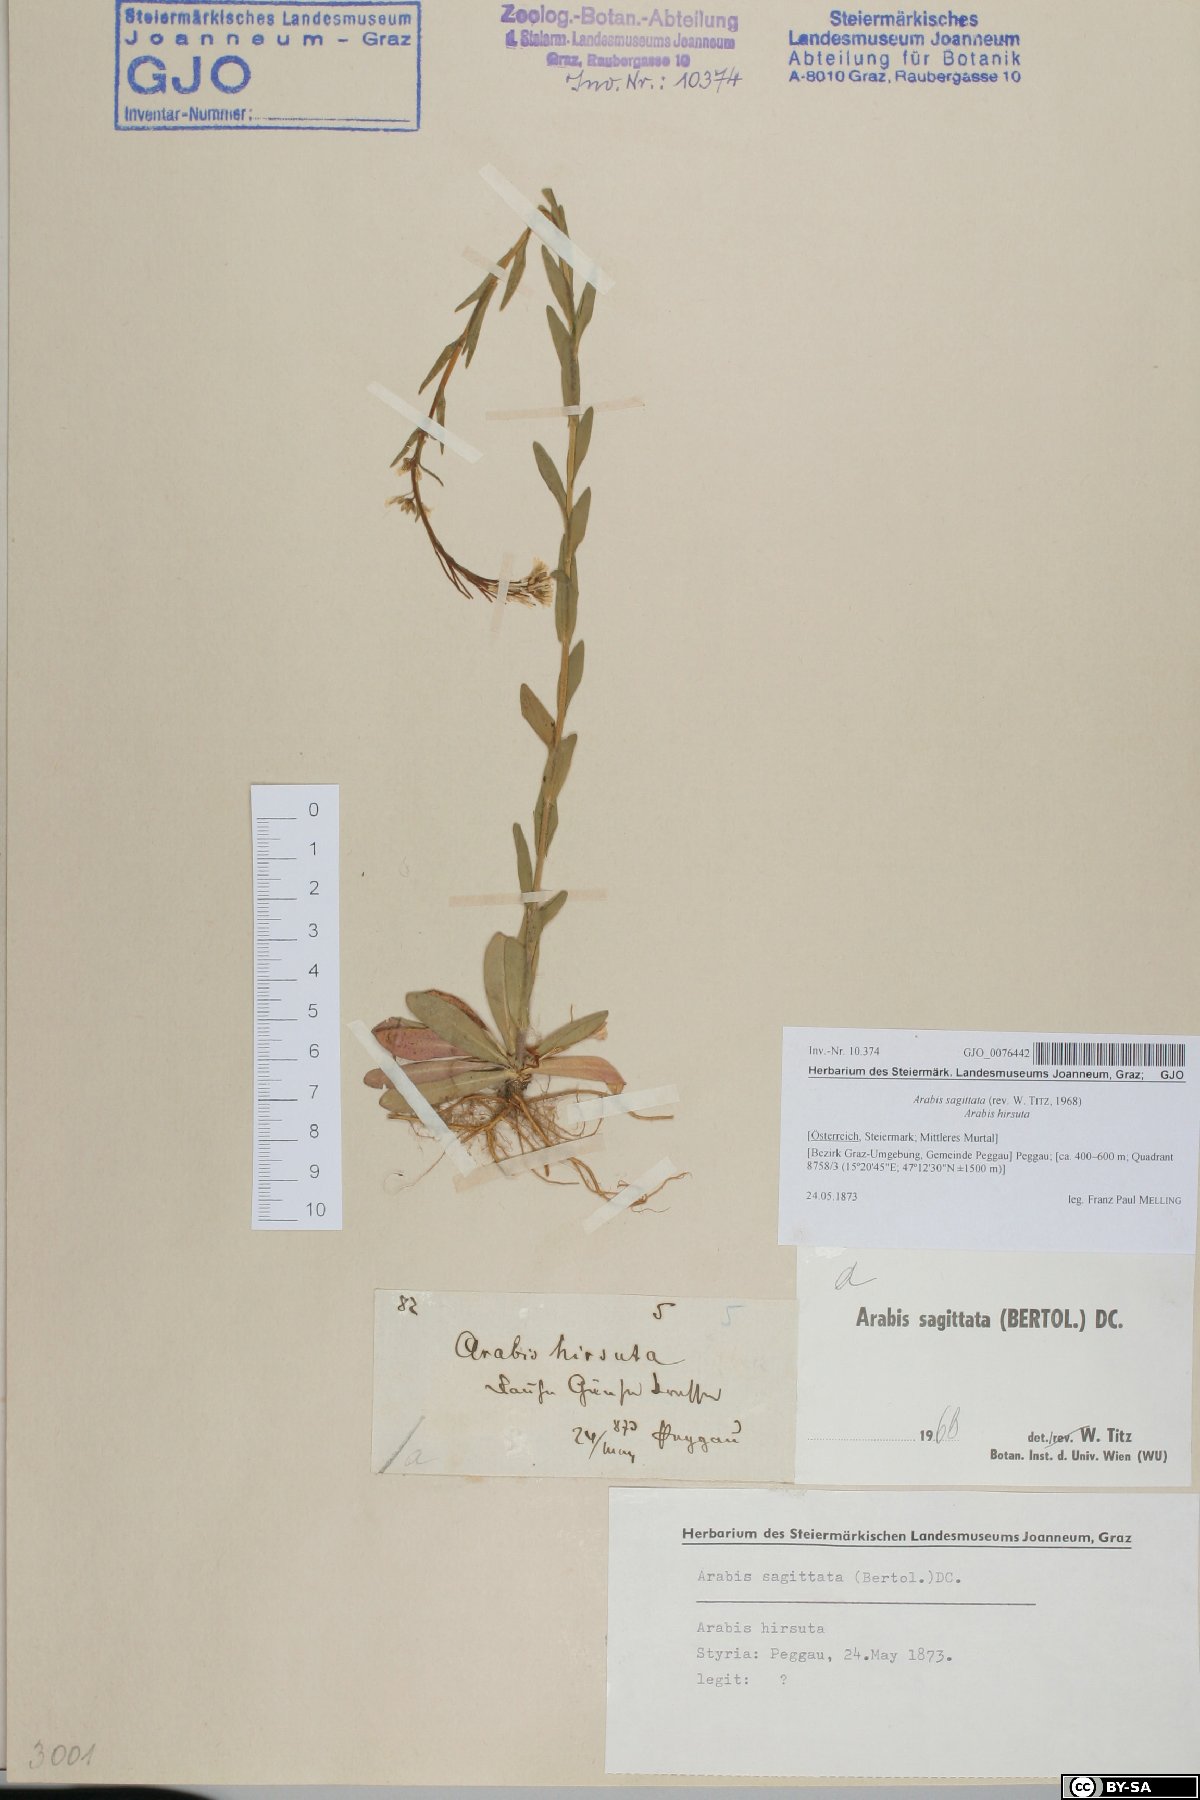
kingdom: Plantae
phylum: Tracheophyta
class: Magnoliopsida
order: Brassicales
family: Brassicaceae
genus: Arabis
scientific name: Arabis sagittata
